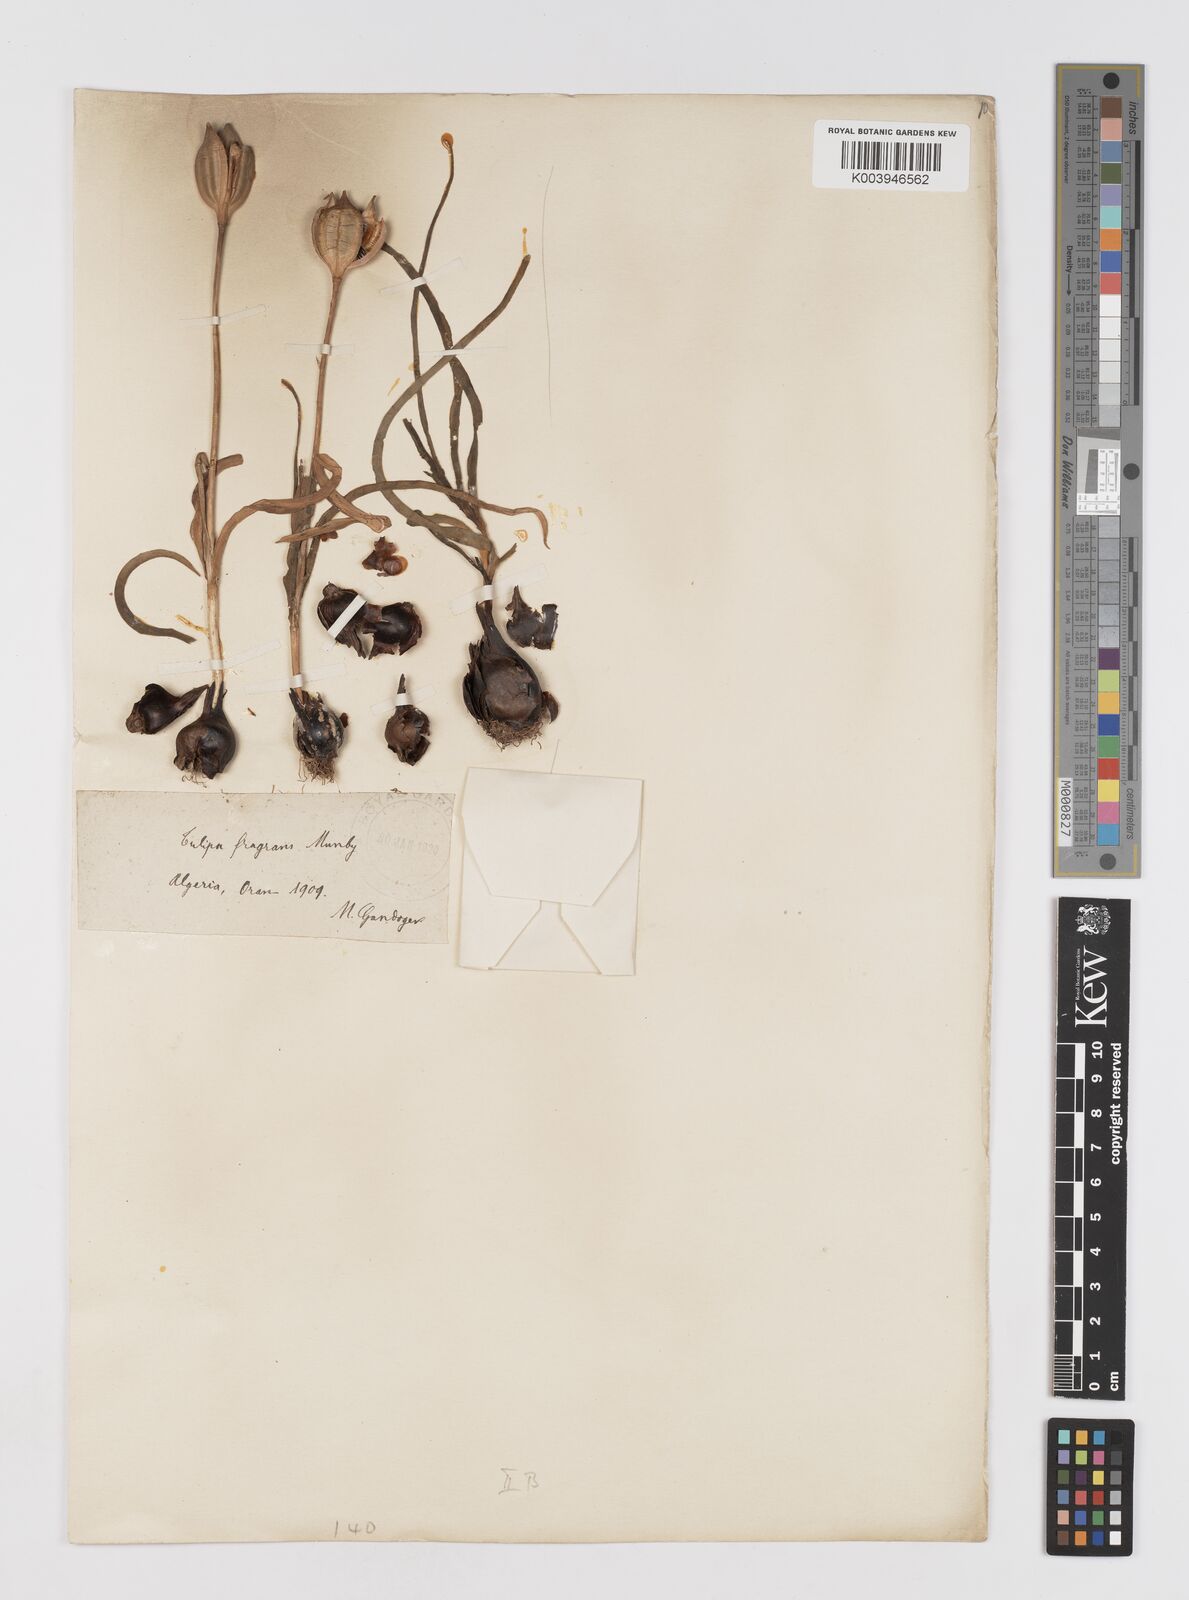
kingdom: Plantae
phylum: Tracheophyta
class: Liliopsida
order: Liliales
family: Liliaceae
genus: Tulipa
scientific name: Tulipa sylvestris
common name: Wild tulip
